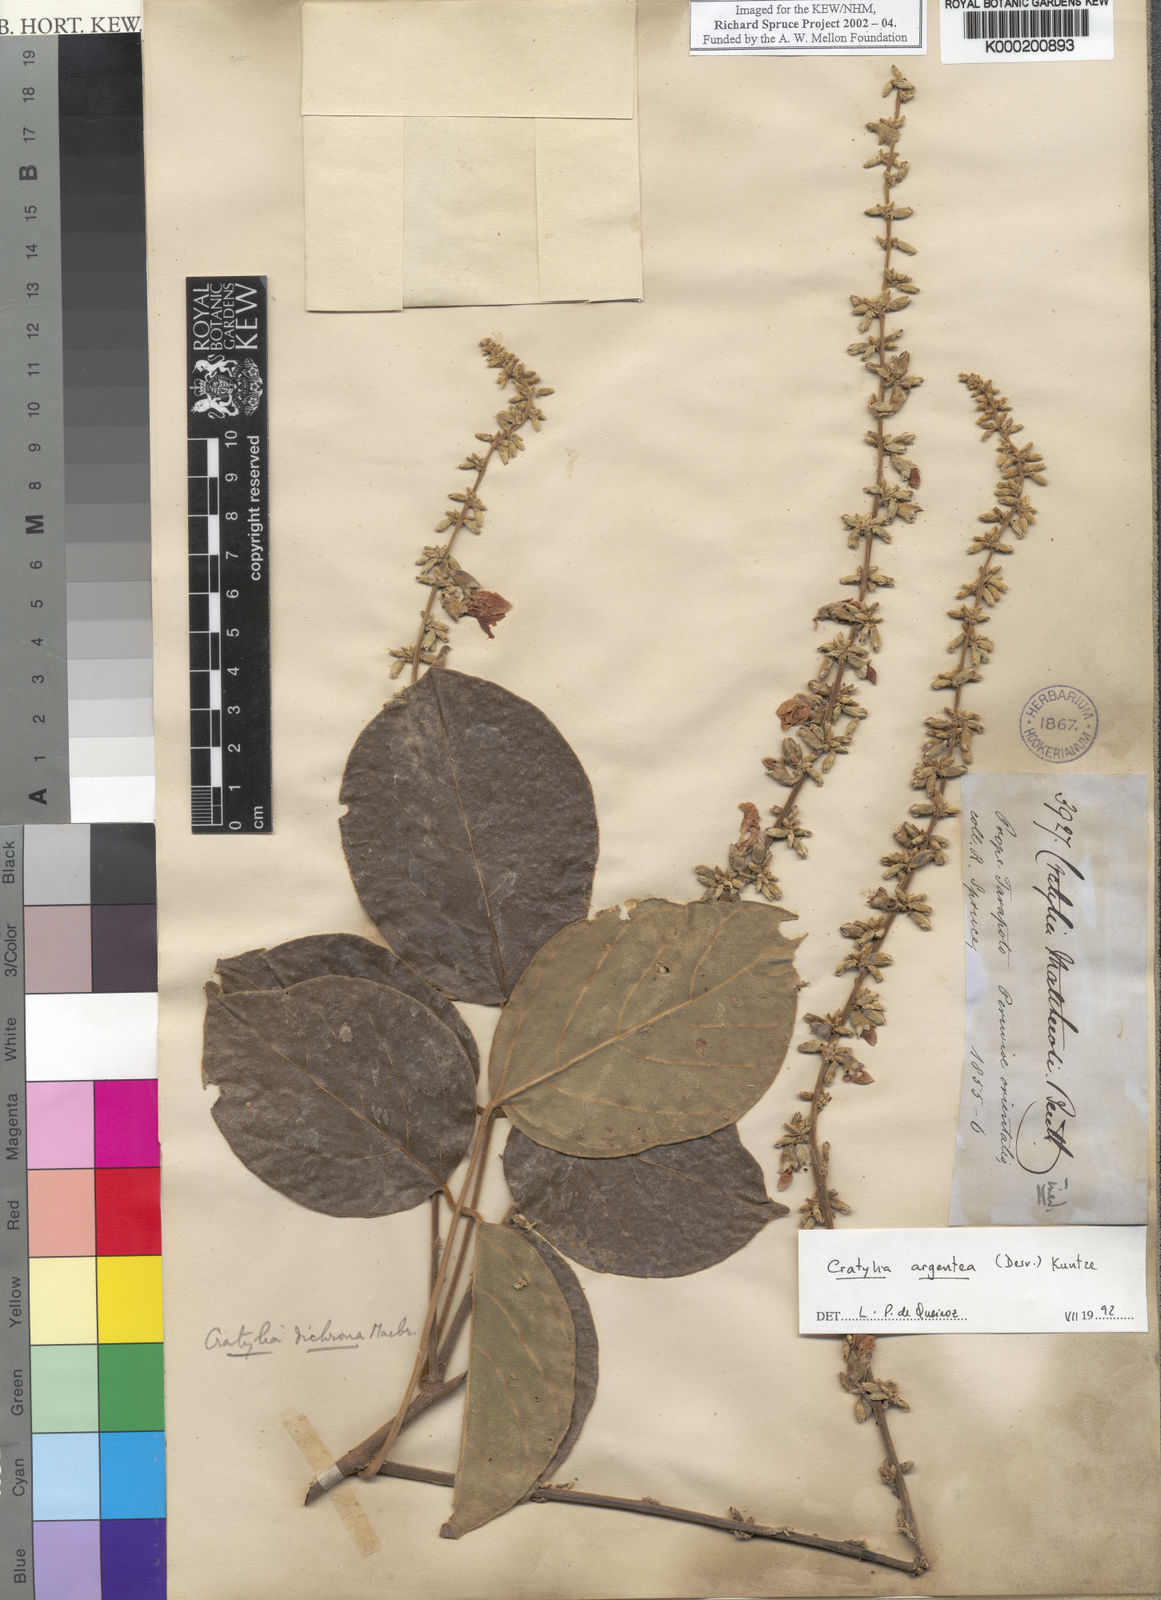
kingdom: Plantae
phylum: Tracheophyta
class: Magnoliopsida
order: Fabales
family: Fabaceae
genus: Cratylia
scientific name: Cratylia argentea
